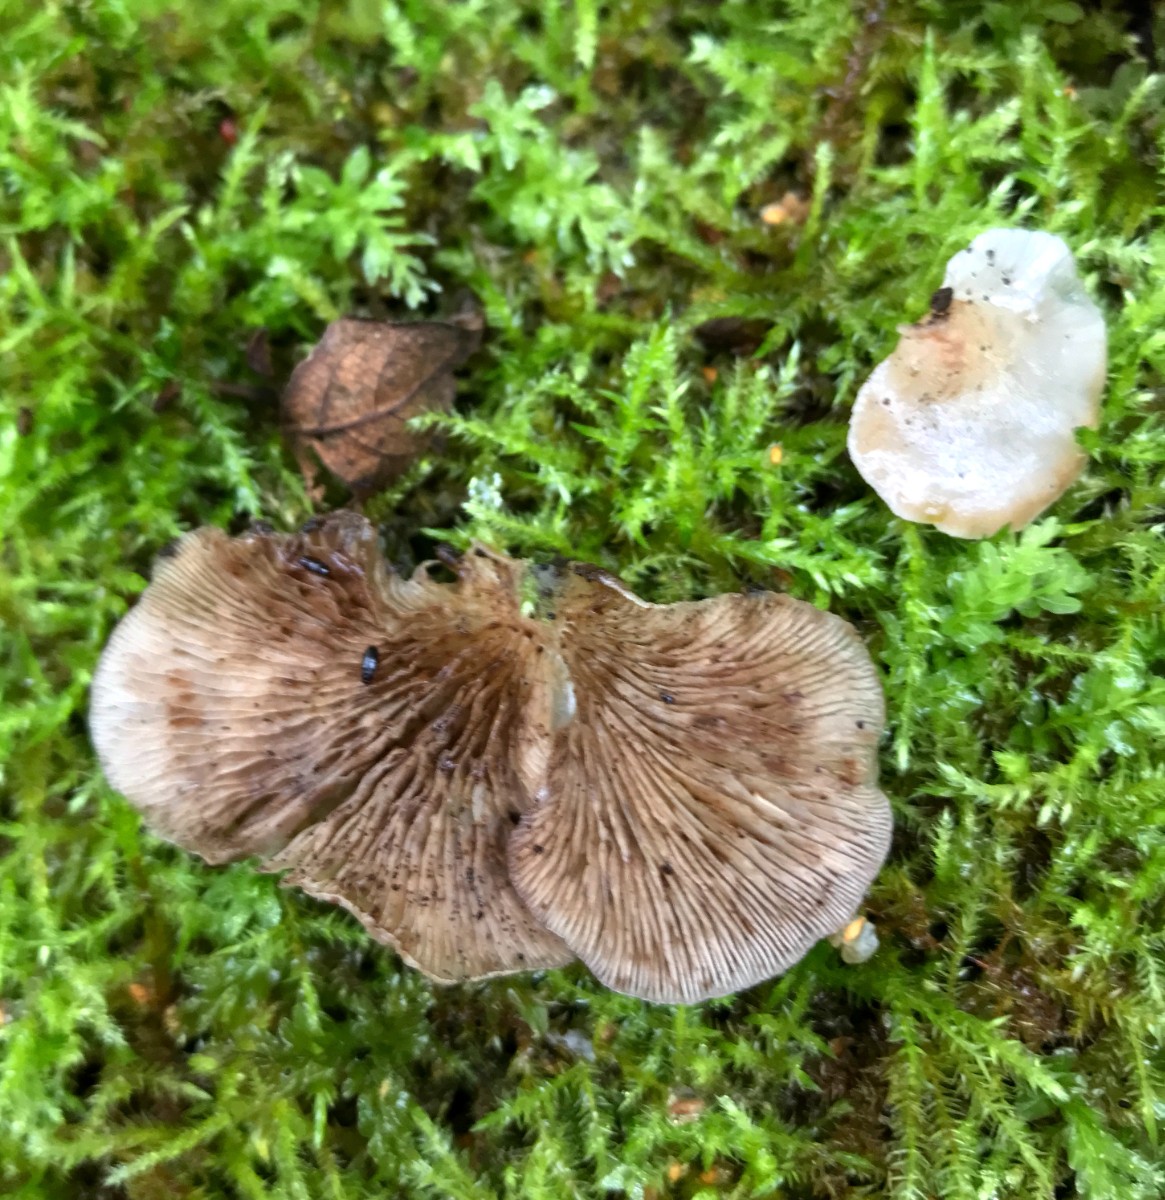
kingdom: Fungi
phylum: Basidiomycota
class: Agaricomycetes
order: Agaricales
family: Crepidotaceae
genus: Crepidotus
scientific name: Crepidotus mollis
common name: blød muslingesvamp
